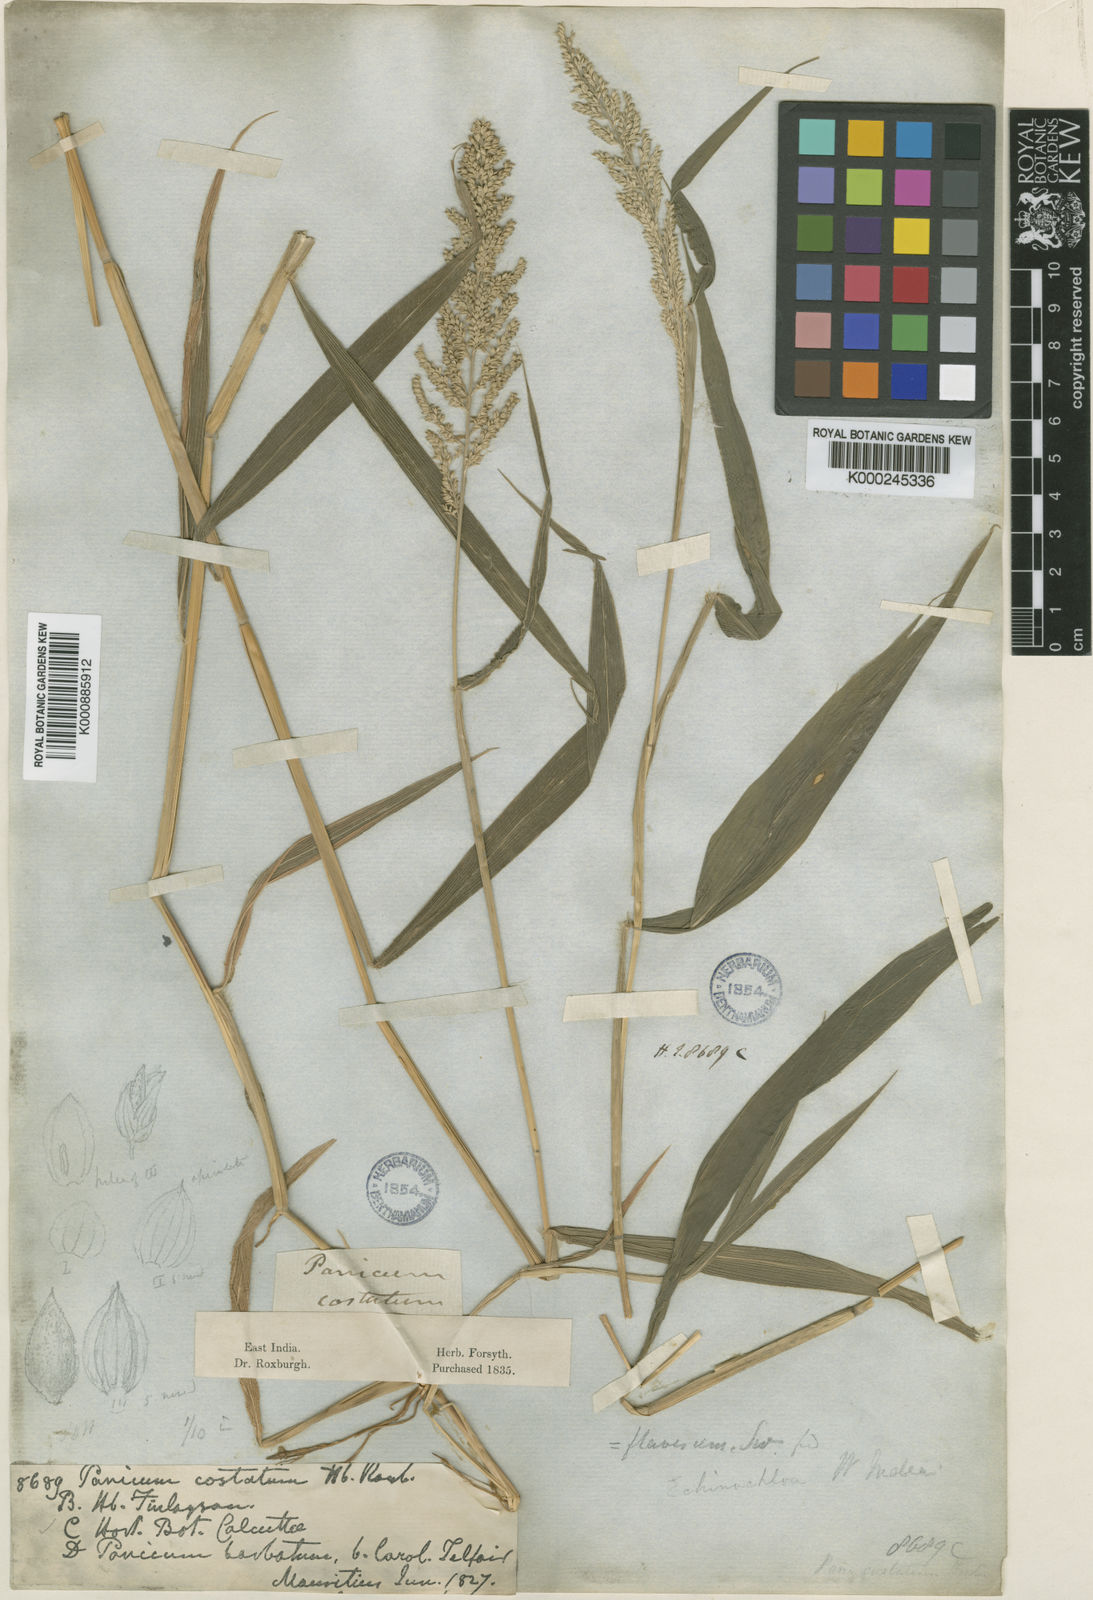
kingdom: Plantae
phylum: Tracheophyta
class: Liliopsida
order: Poales
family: Poaceae
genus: Setaria
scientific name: Setaria barbata
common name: East indian bristlegrass
